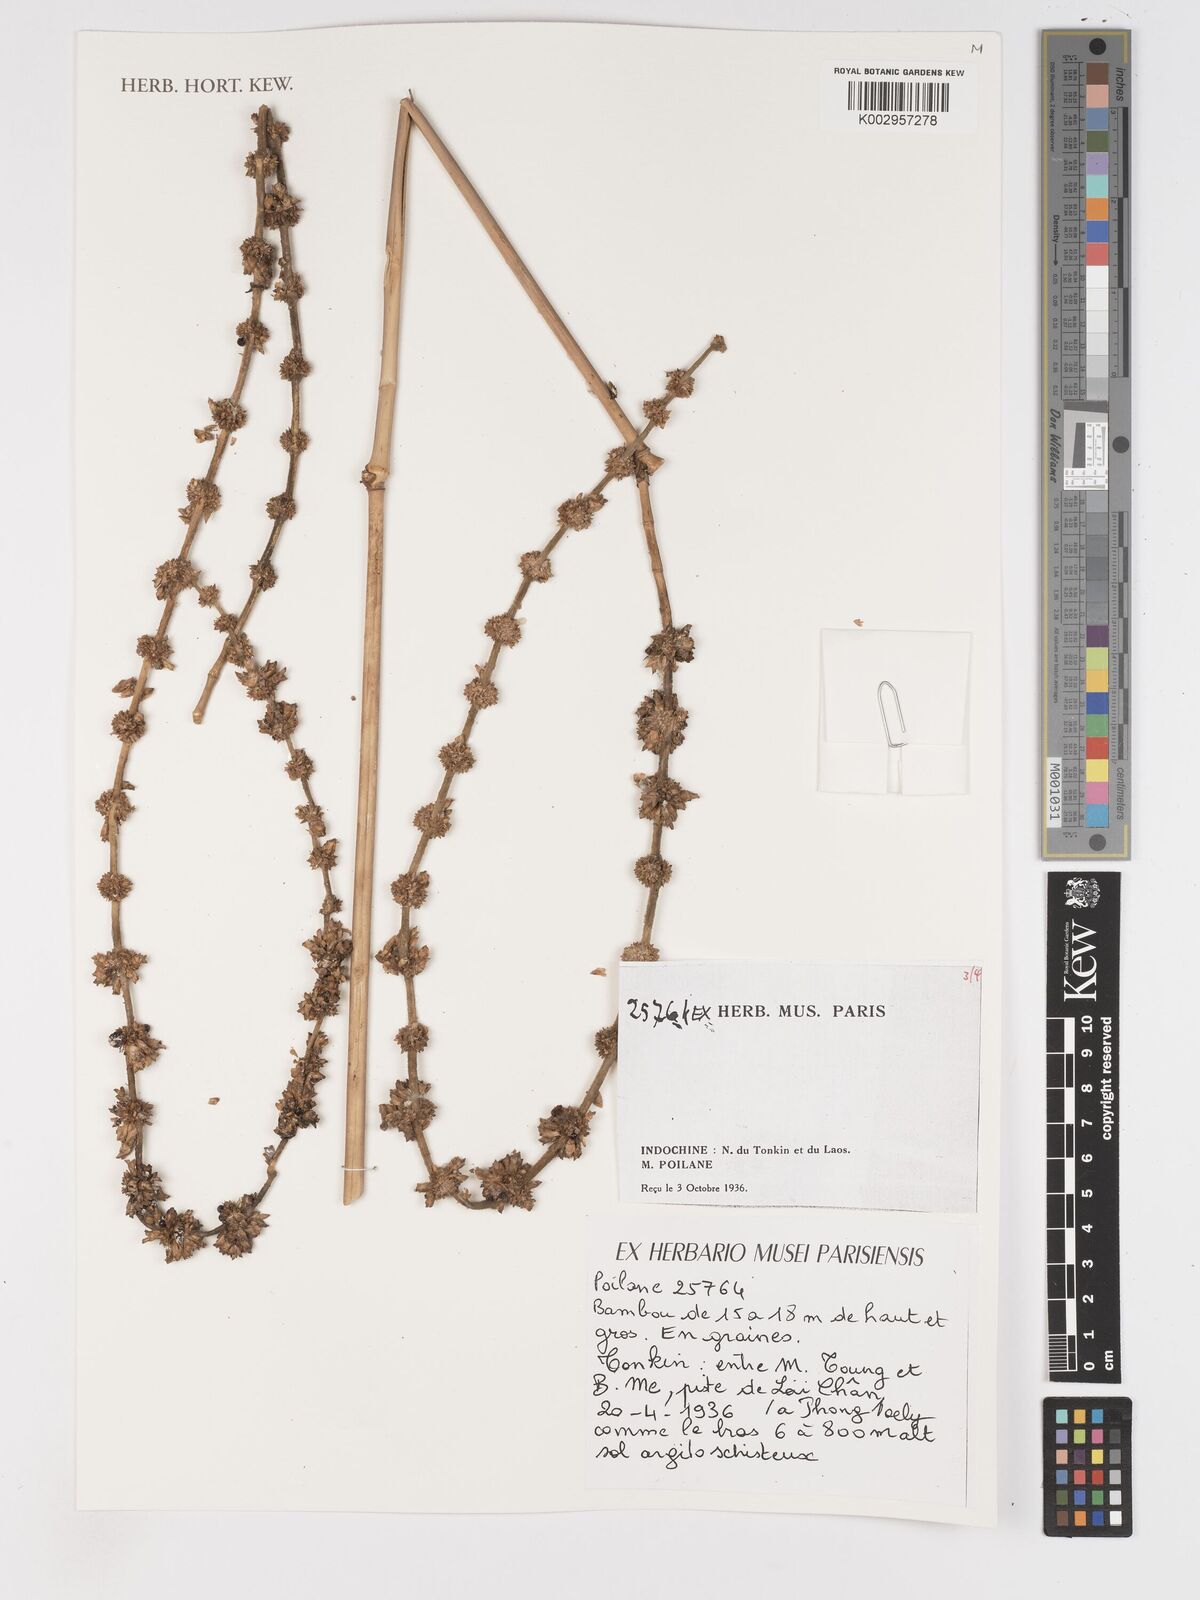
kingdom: Plantae
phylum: Tracheophyta
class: Liliopsida
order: Poales
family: Poaceae
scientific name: Poaceae
